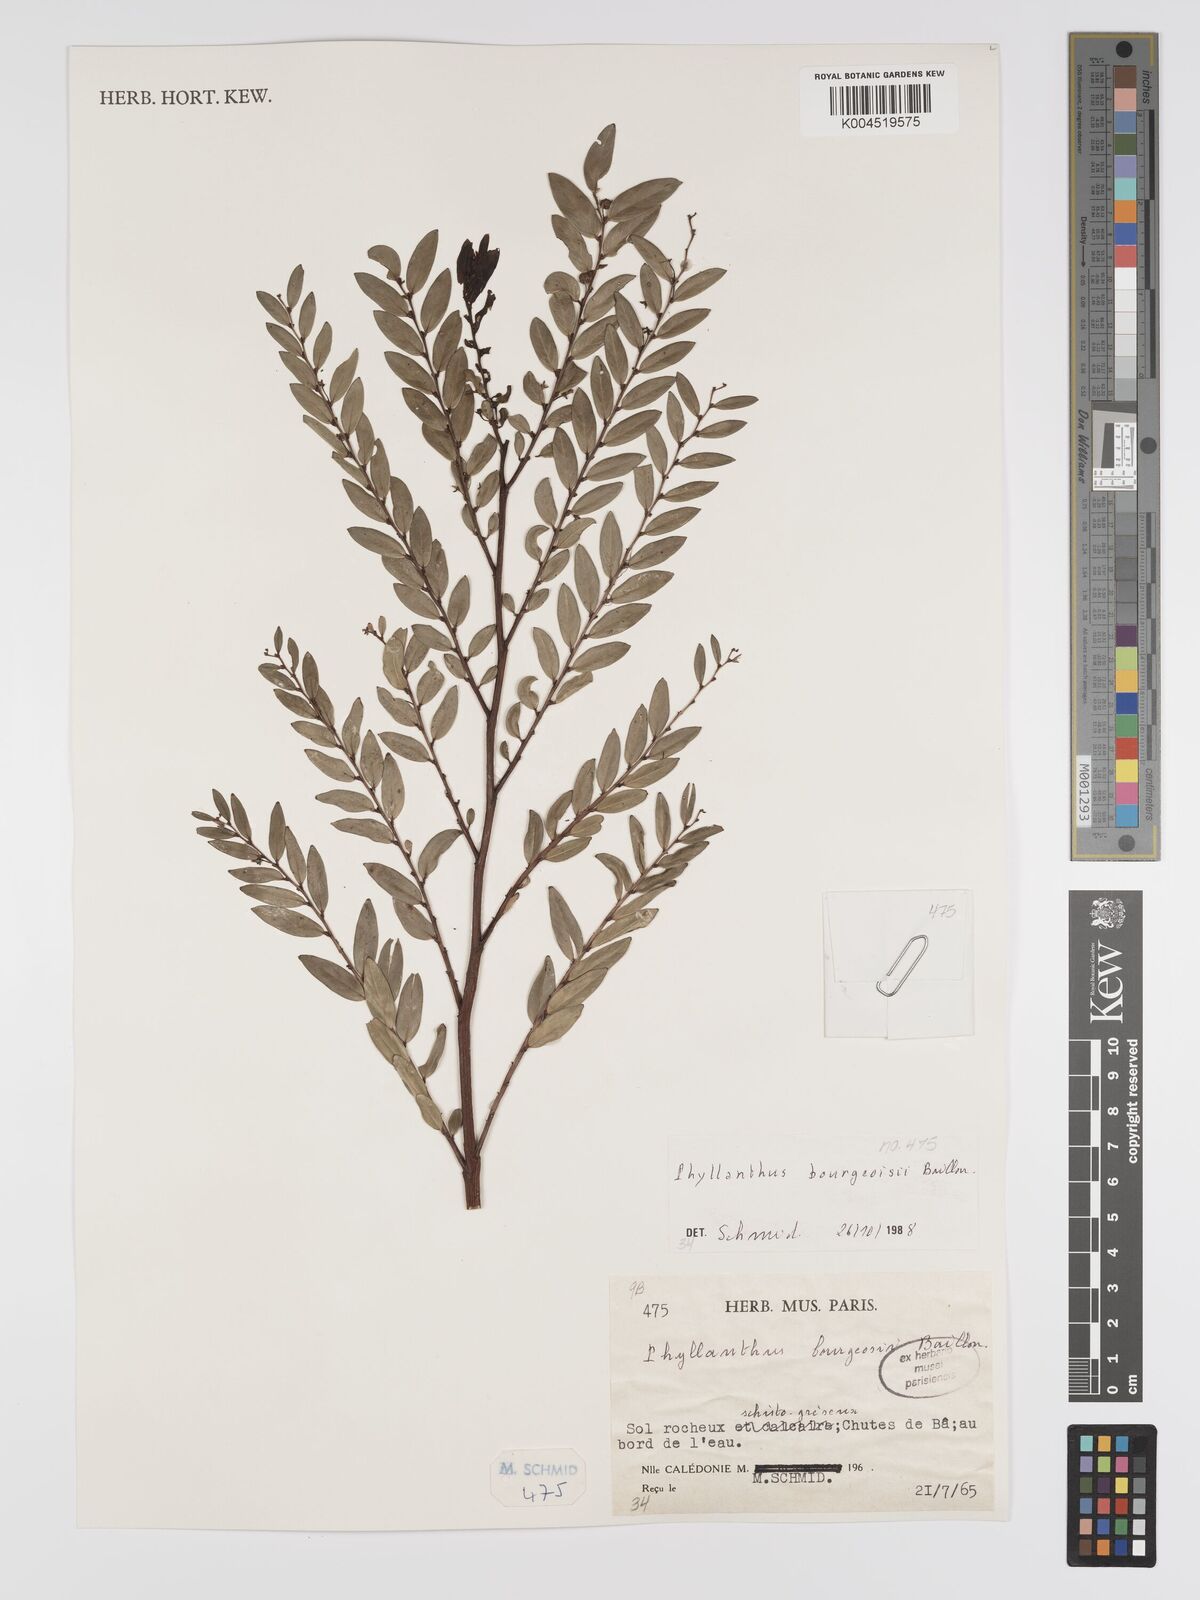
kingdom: Plantae
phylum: Tracheophyta
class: Magnoliopsida
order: Malpighiales
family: Phyllanthaceae
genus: Phyllanthus
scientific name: Phyllanthus bourgeoisii
